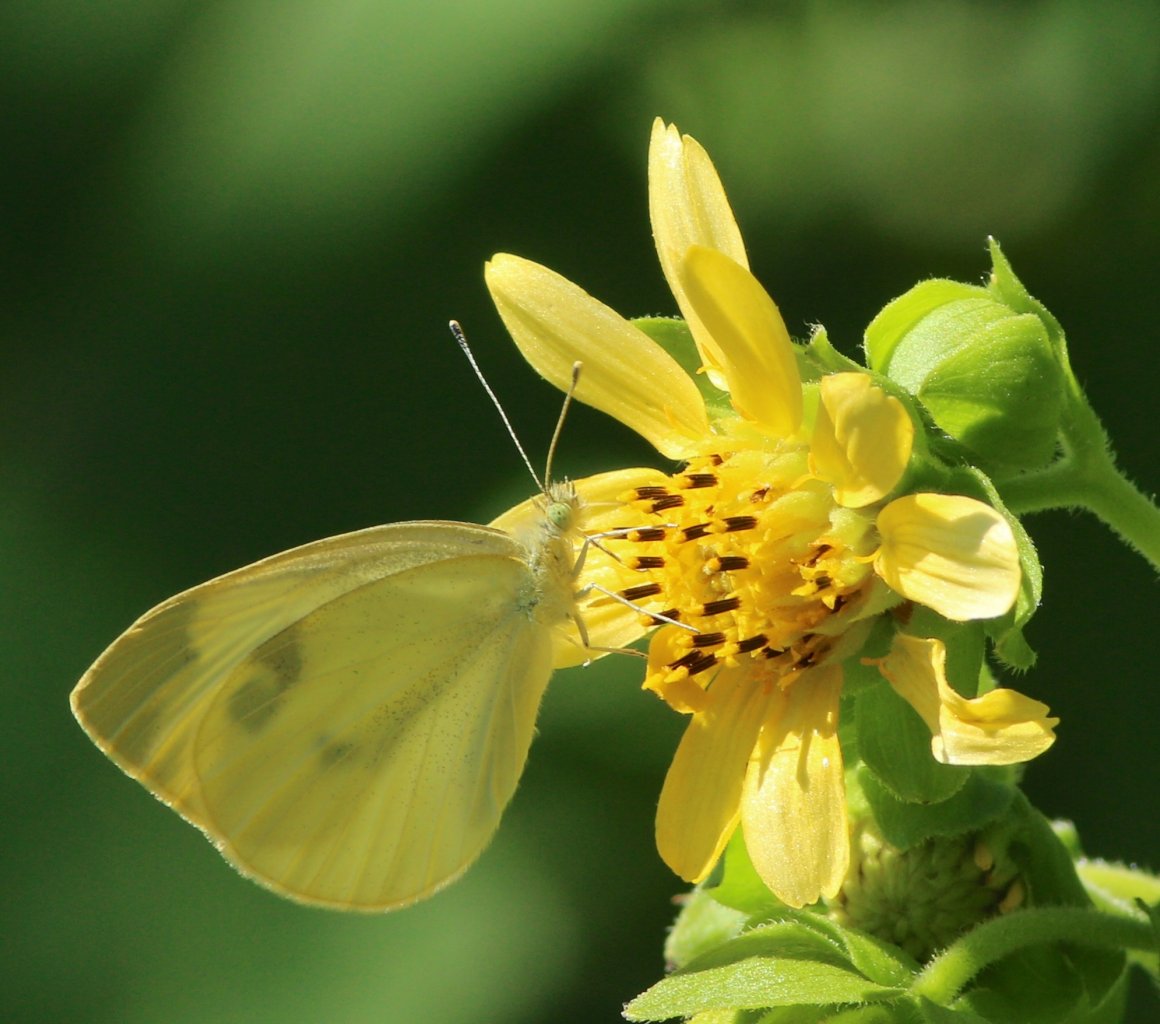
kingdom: Animalia
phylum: Arthropoda
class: Insecta
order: Lepidoptera
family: Pieridae
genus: Pieris
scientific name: Pieris rapae
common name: Cabbage White
